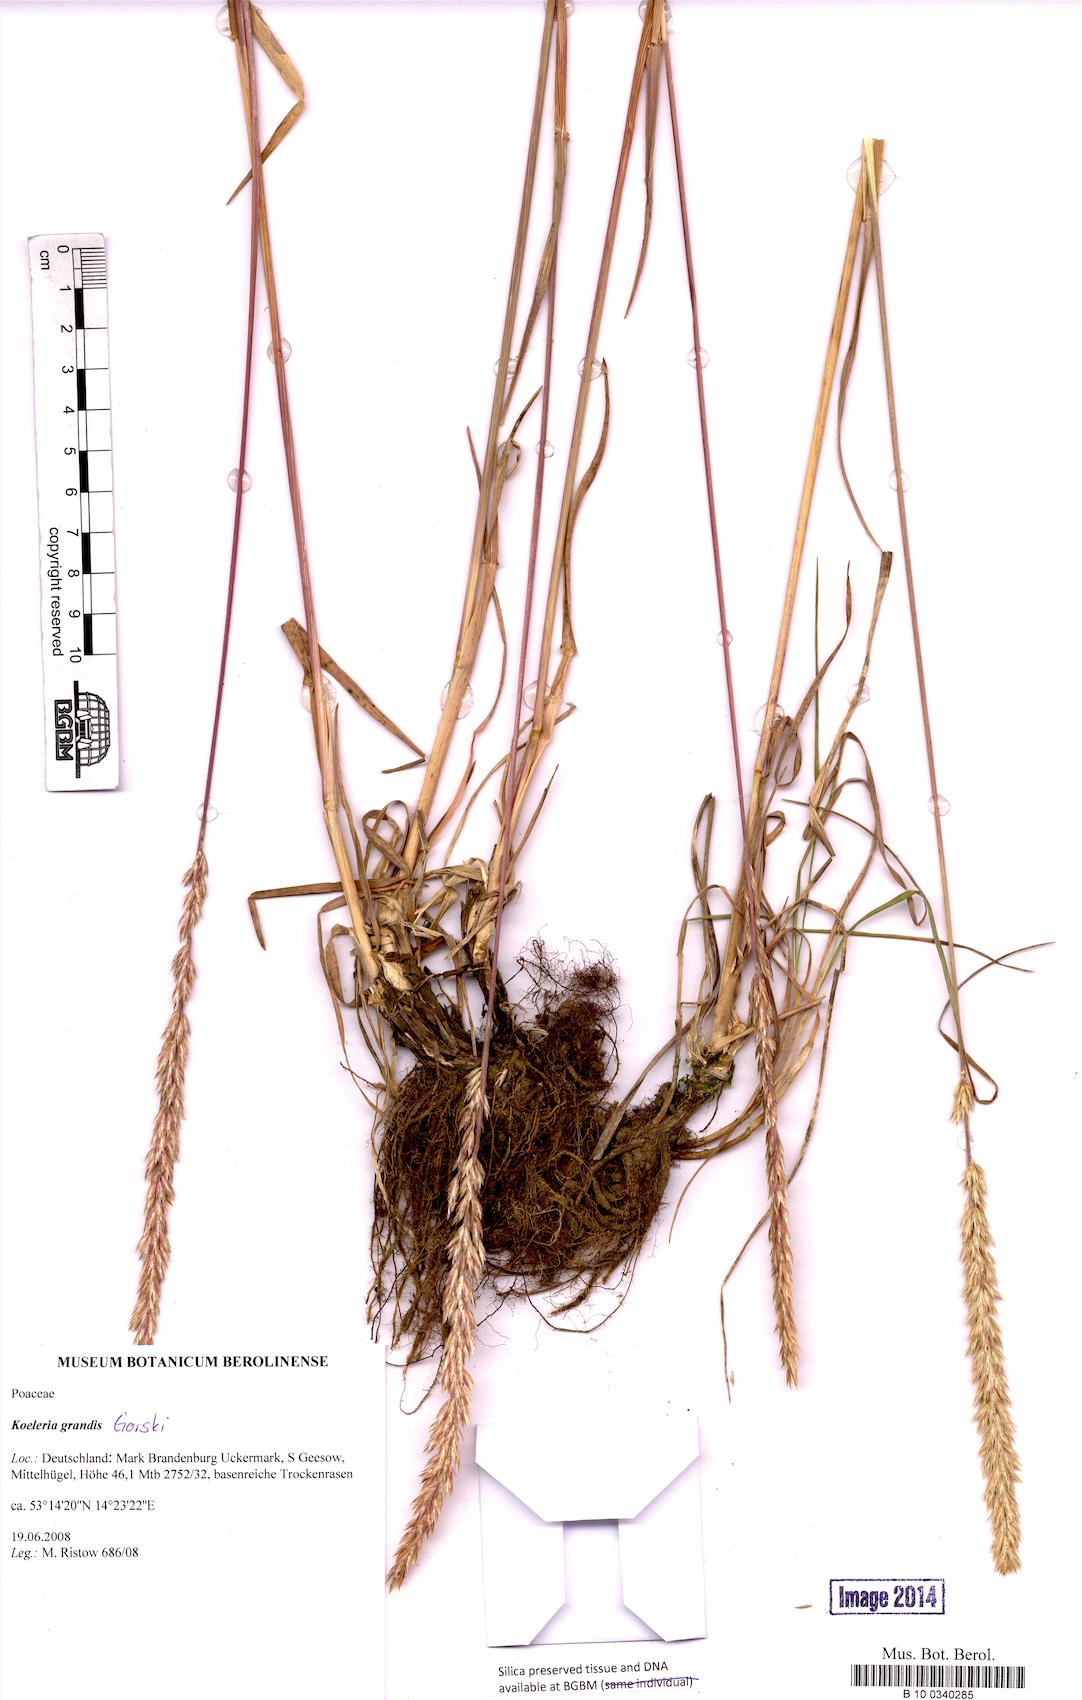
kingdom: Plantae
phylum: Tracheophyta
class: Liliopsida
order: Poales
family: Poaceae
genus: Koeleria
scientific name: Koeleria pyramidata
